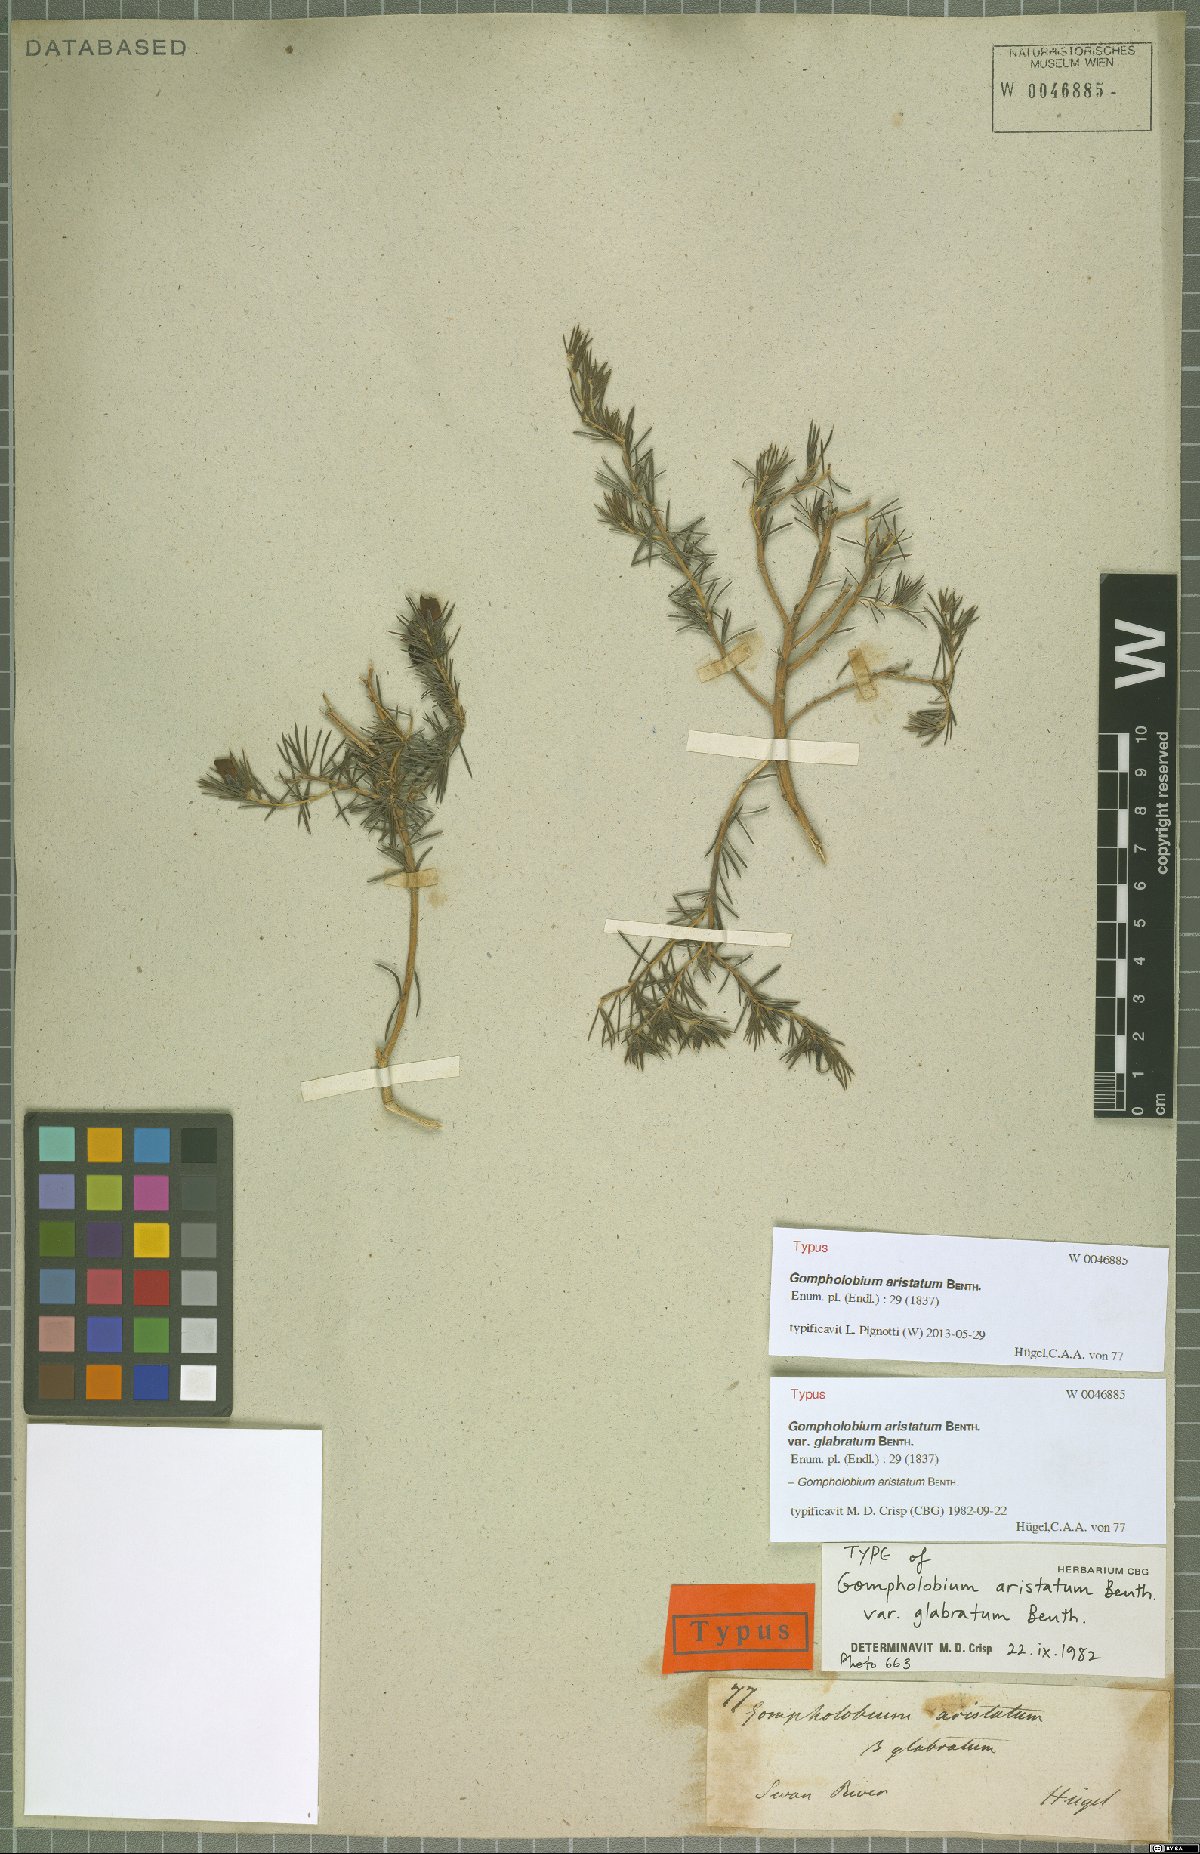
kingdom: Plantae
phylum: Tracheophyta
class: Magnoliopsida
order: Fabales
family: Fabaceae
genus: Gompholobium
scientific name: Gompholobium aristatum
